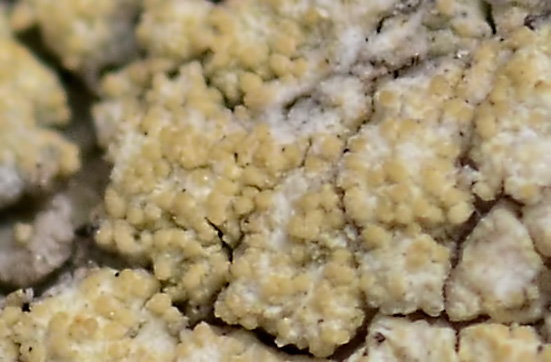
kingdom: Fungi
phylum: Ascomycota
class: Lecanoromycetes
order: Pertusariales
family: Pertusariaceae
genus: Pertusaria
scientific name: Pertusaria flavida
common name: gul prikvortelav
